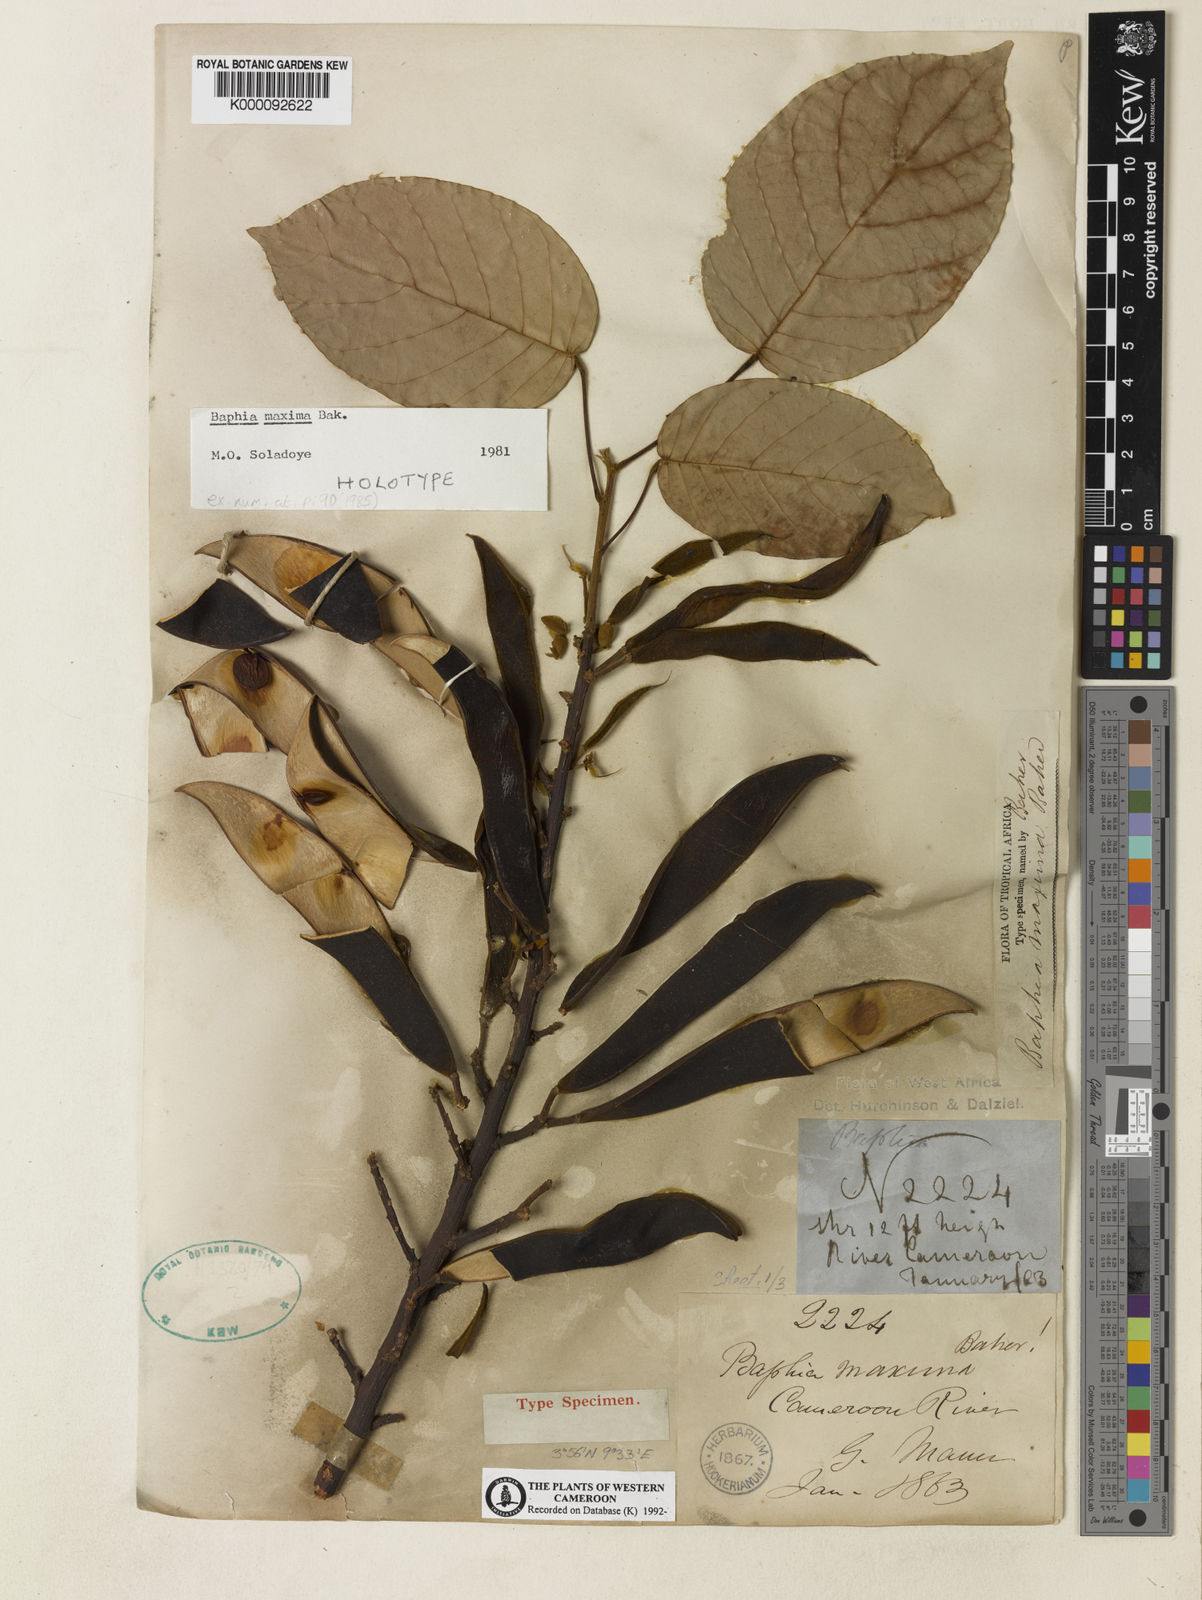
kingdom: Plantae
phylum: Tracheophyta
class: Magnoliopsida
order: Fabales
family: Fabaceae
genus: Baphia
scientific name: Baphia maxima
